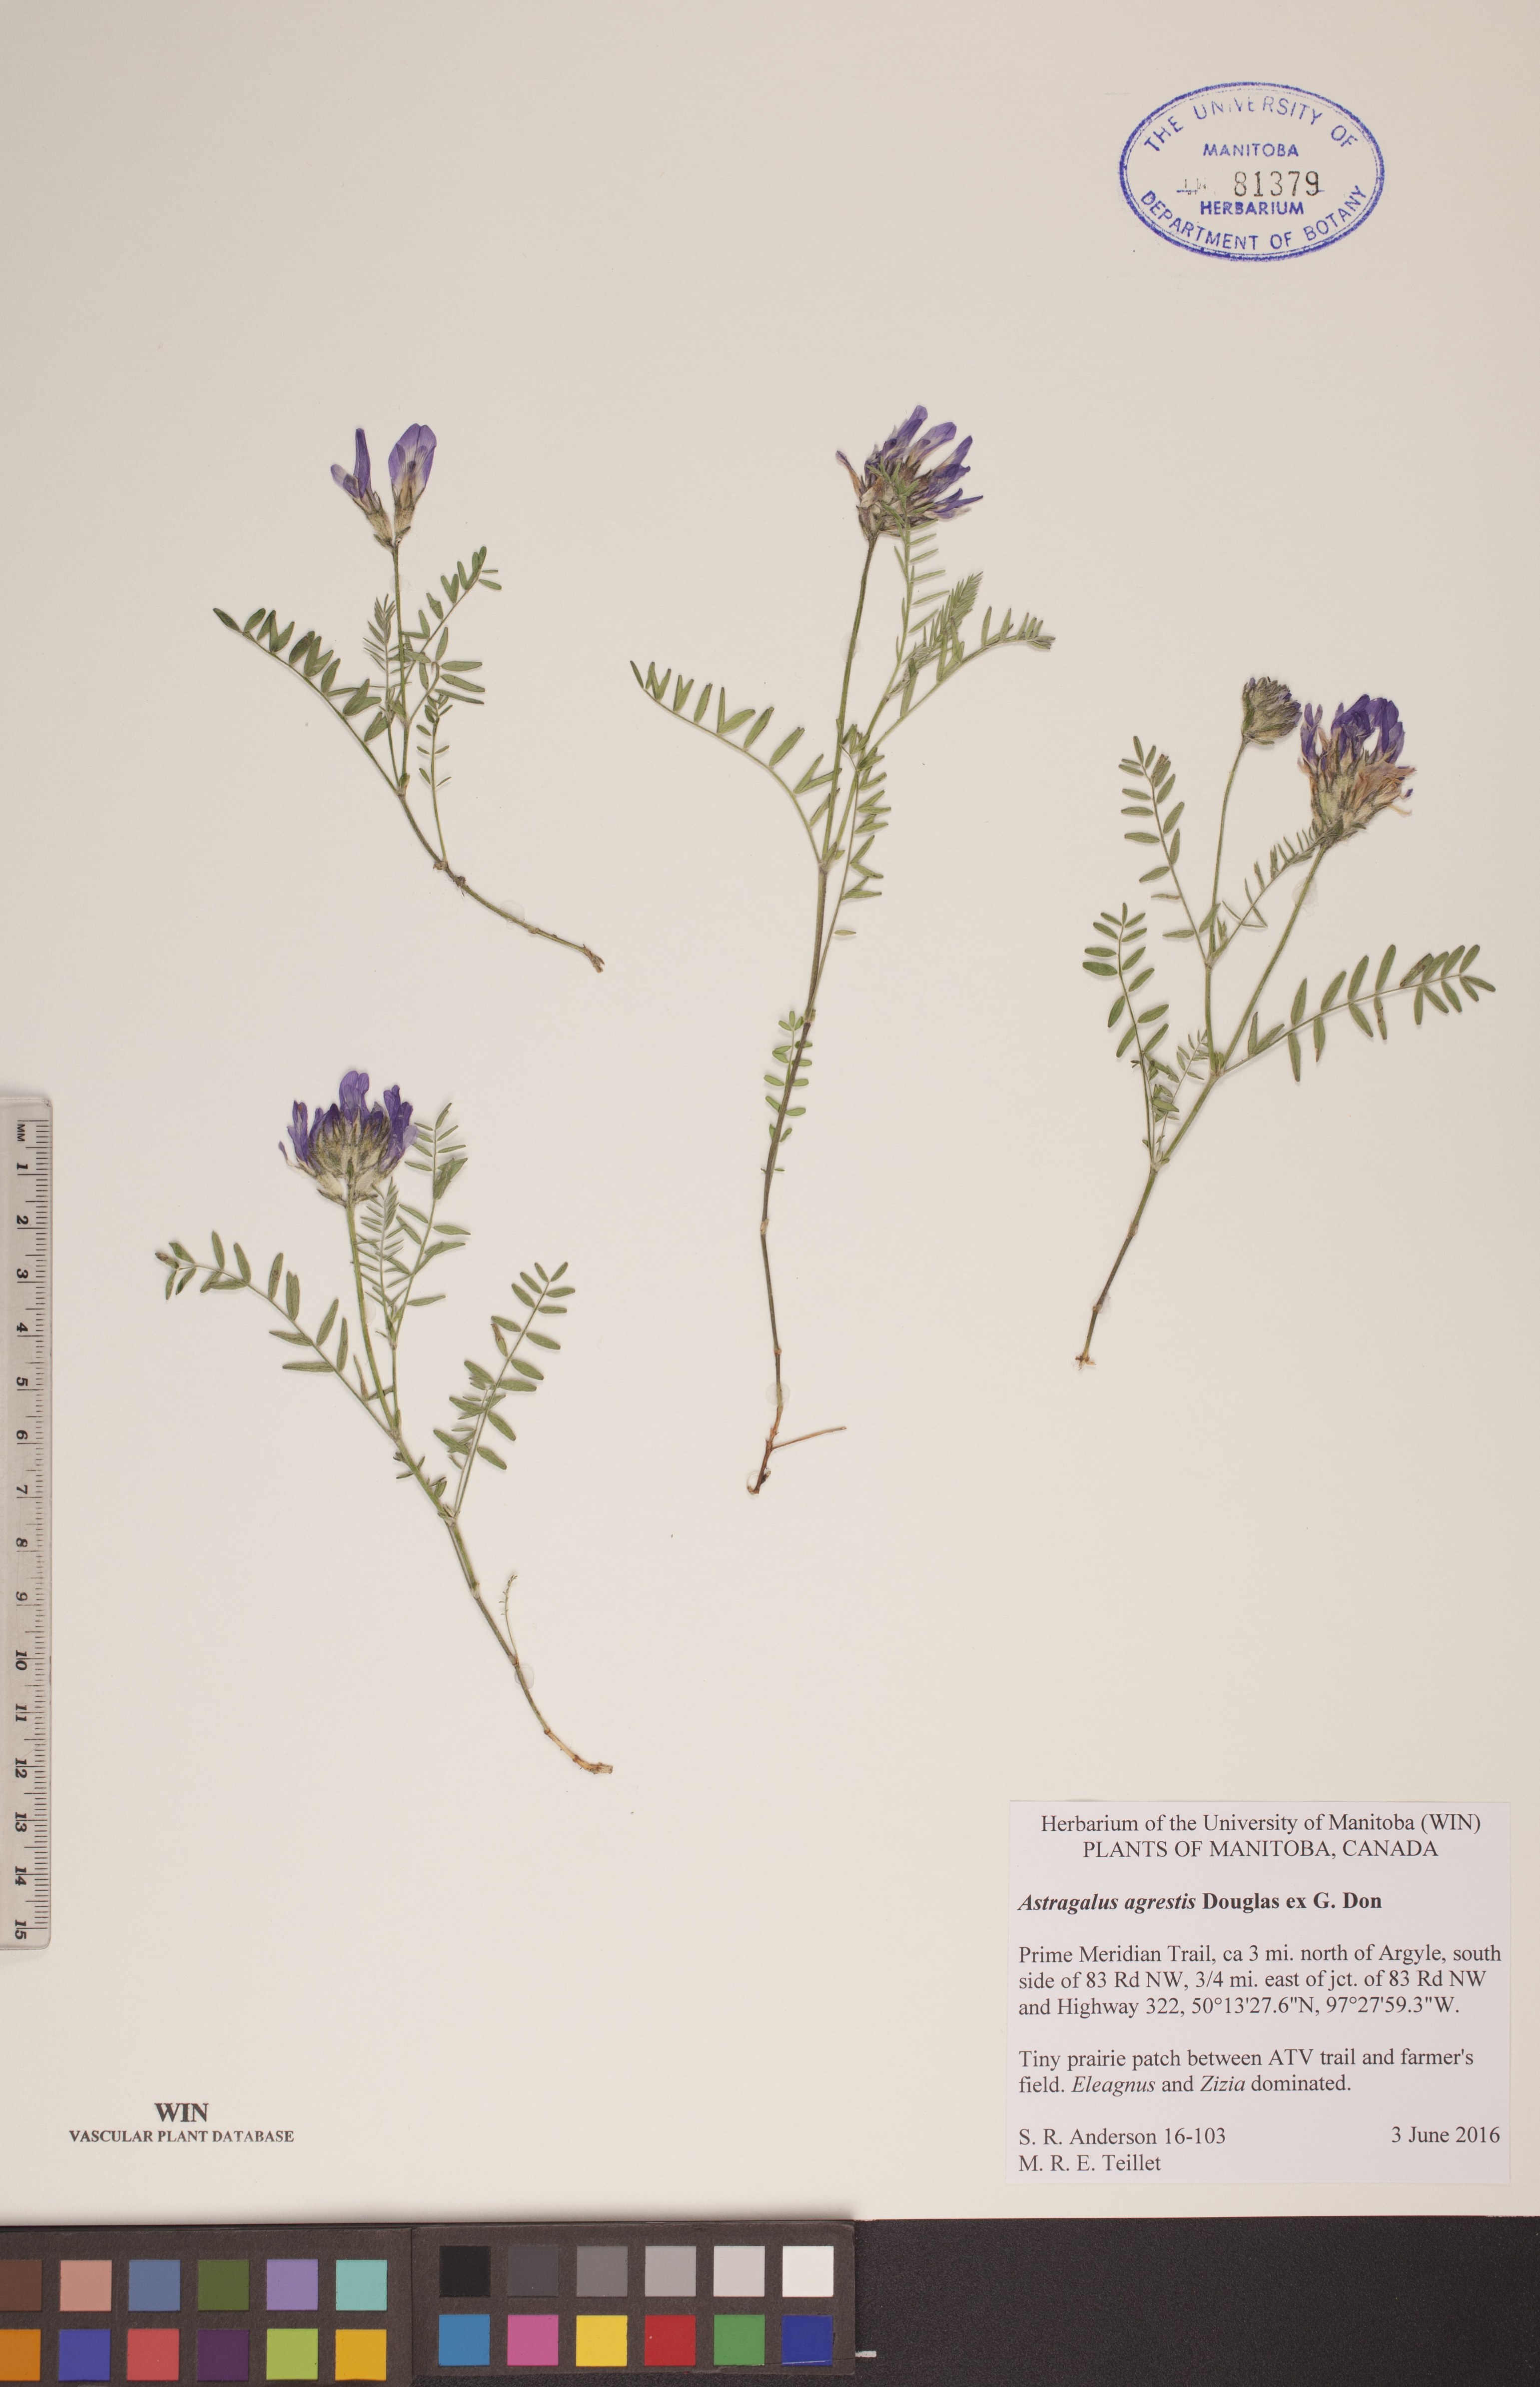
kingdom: Plantae
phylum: Tracheophyta
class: Magnoliopsida
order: Fabales
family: Fabaceae
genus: Astragalus
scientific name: Astragalus agrestis
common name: Field milk-vetch
